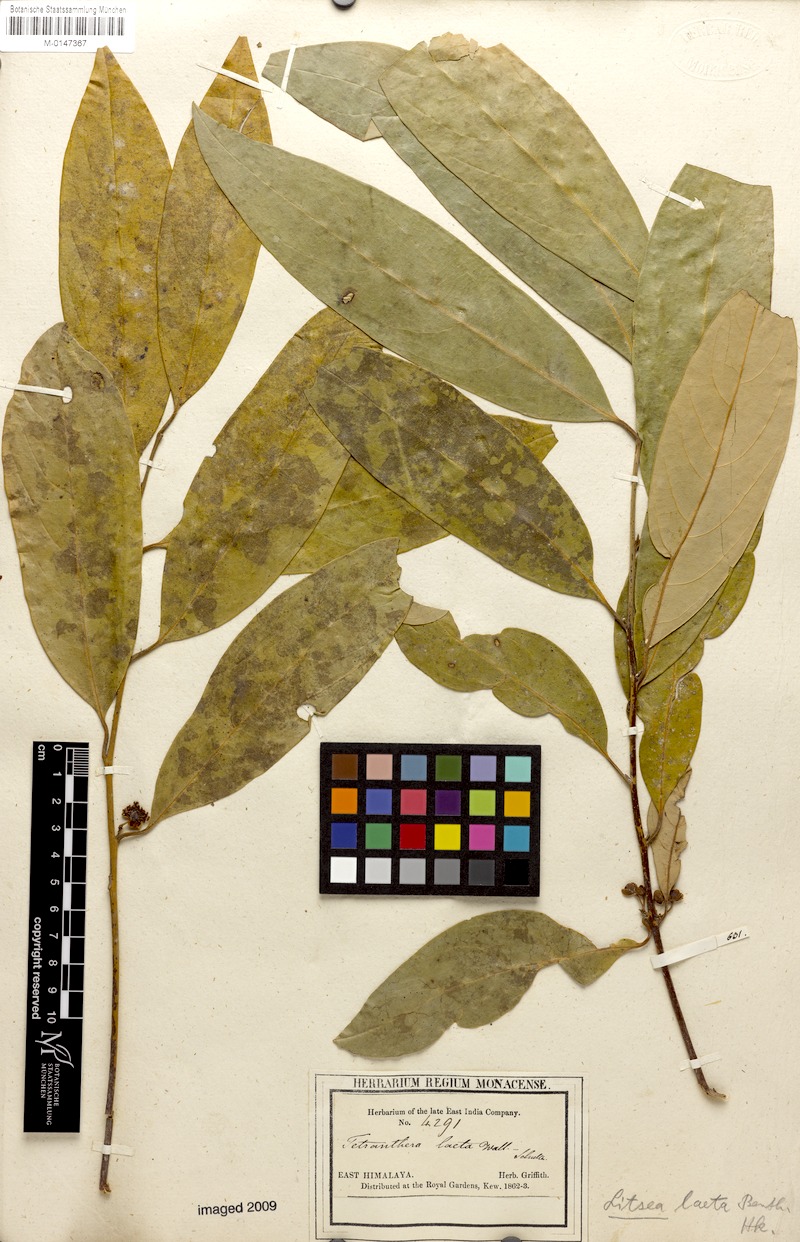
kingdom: Plantae
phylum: Tracheophyta
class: Magnoliopsida
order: Laurales
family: Lauraceae
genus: Litsea
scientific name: Litsea laeta
